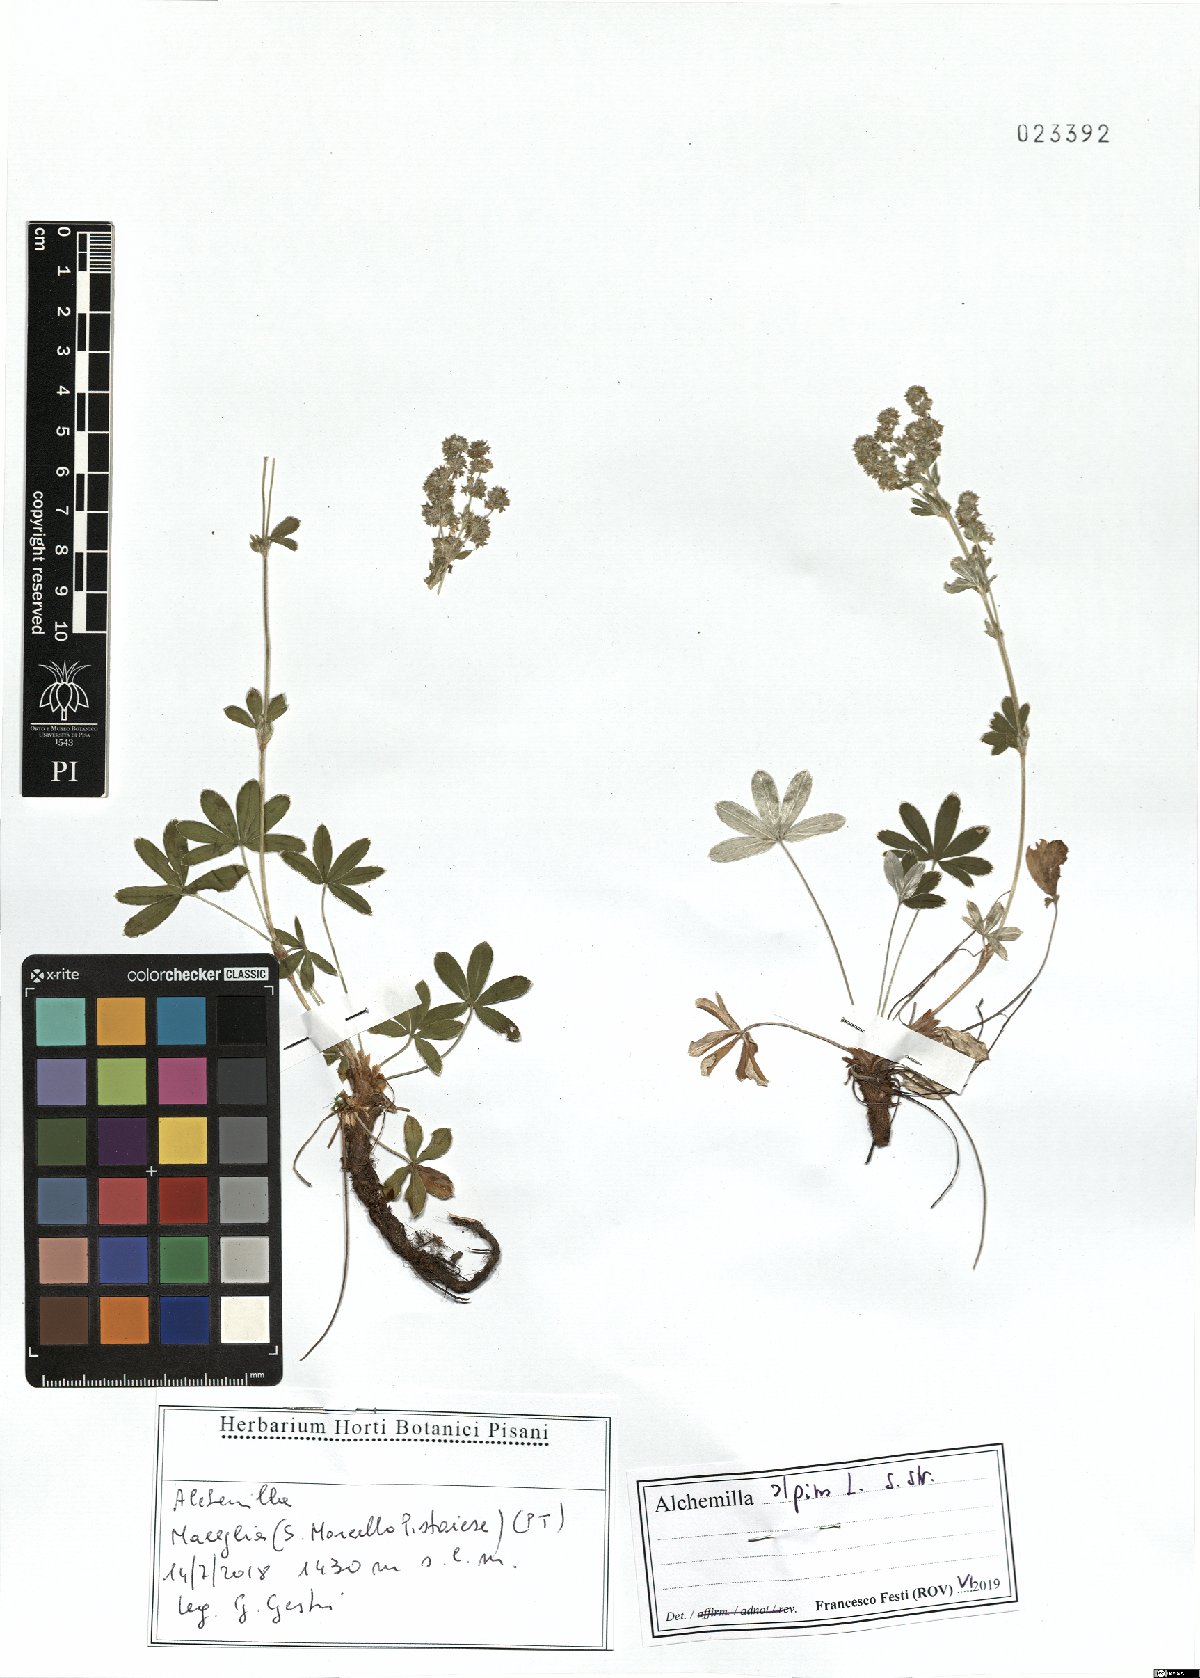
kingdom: Plantae
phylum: Tracheophyta
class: Magnoliopsida
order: Rosales
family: Rosaceae
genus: Alchemilla
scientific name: Alchemilla alpina
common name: Alpine lady's-mantle
